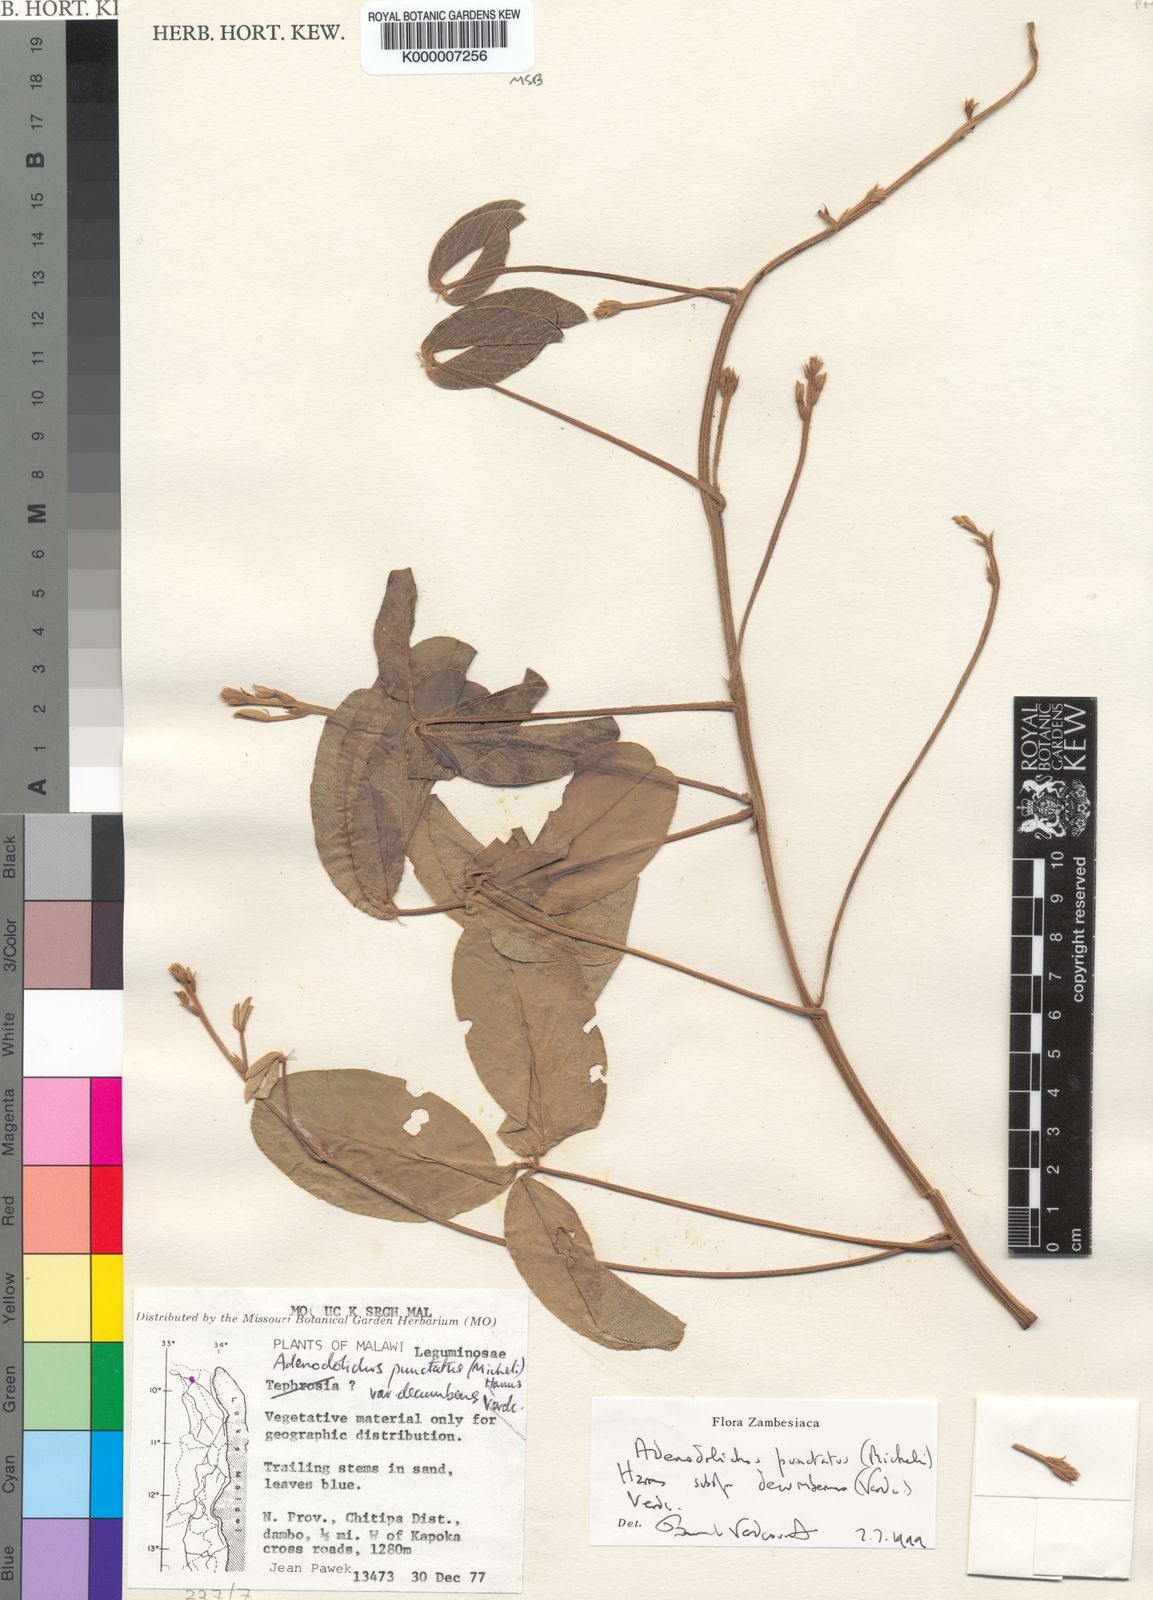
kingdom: Plantae
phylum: Tracheophyta
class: Magnoliopsida
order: Fabales
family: Fabaceae
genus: Adenodolichos
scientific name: Adenodolichos punctatus
